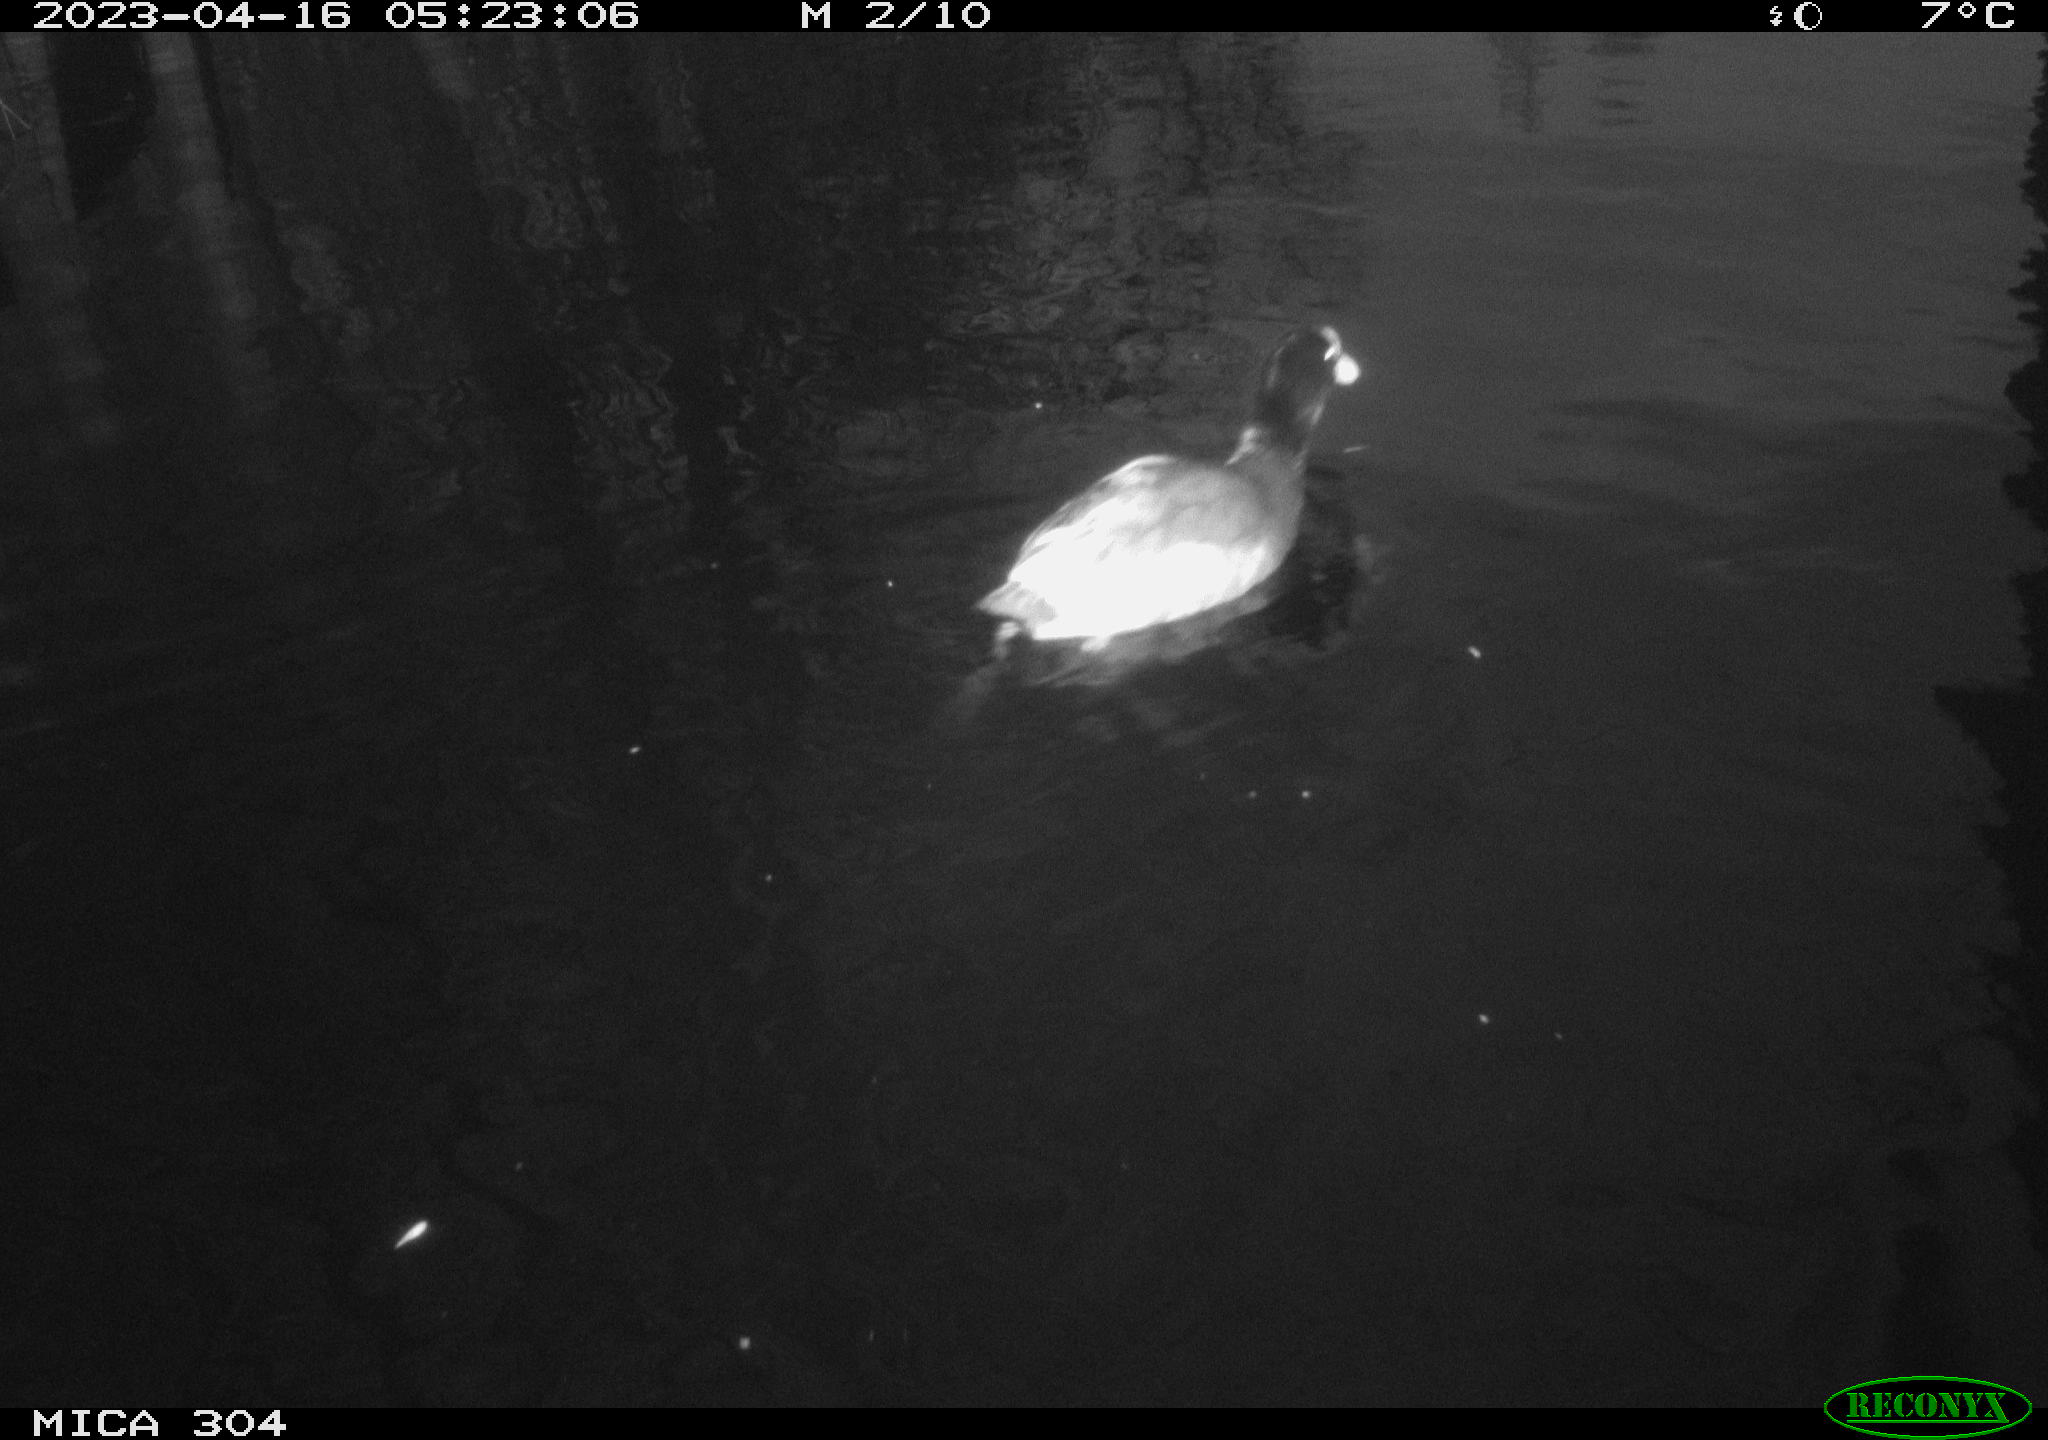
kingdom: Animalia
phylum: Chordata
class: Aves
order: Anseriformes
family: Anatidae
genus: Anas
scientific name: Anas
